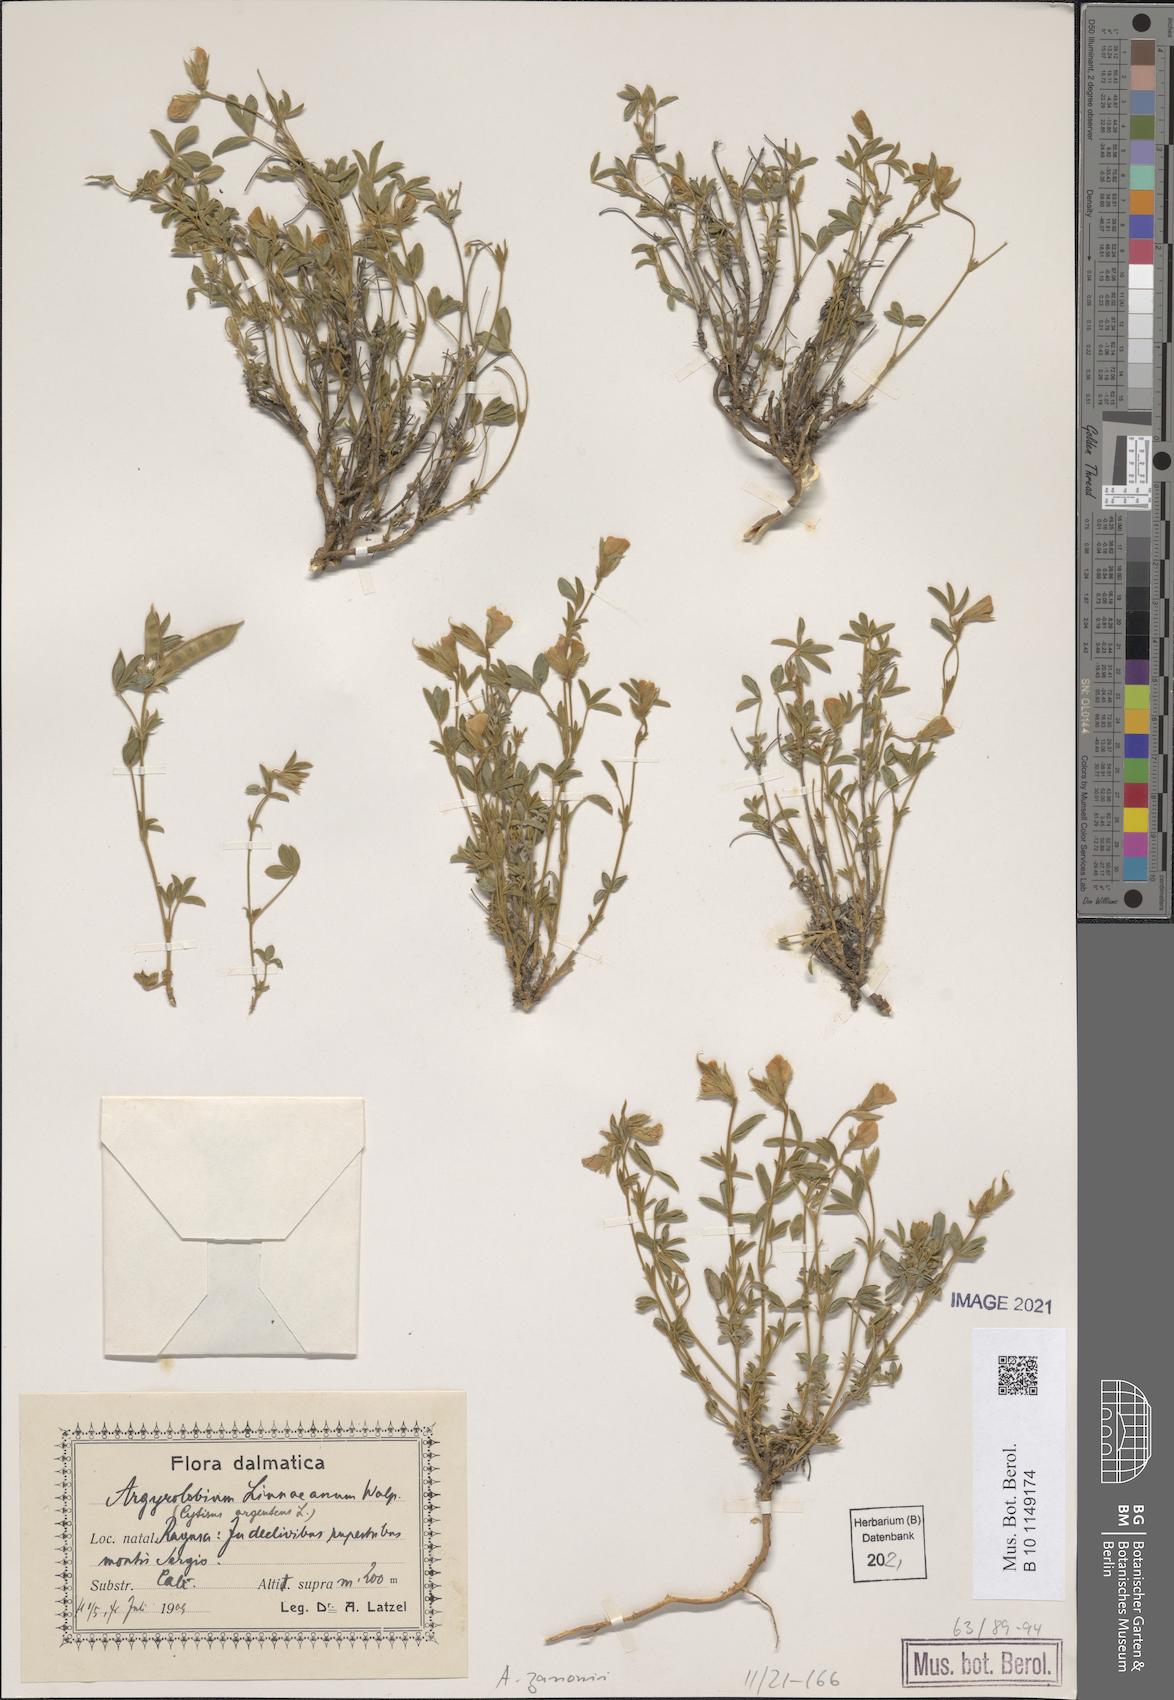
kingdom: Plantae
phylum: Tracheophyta
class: Magnoliopsida
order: Fabales
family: Fabaceae
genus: Argyrolobium
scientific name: Argyrolobium zanonii
